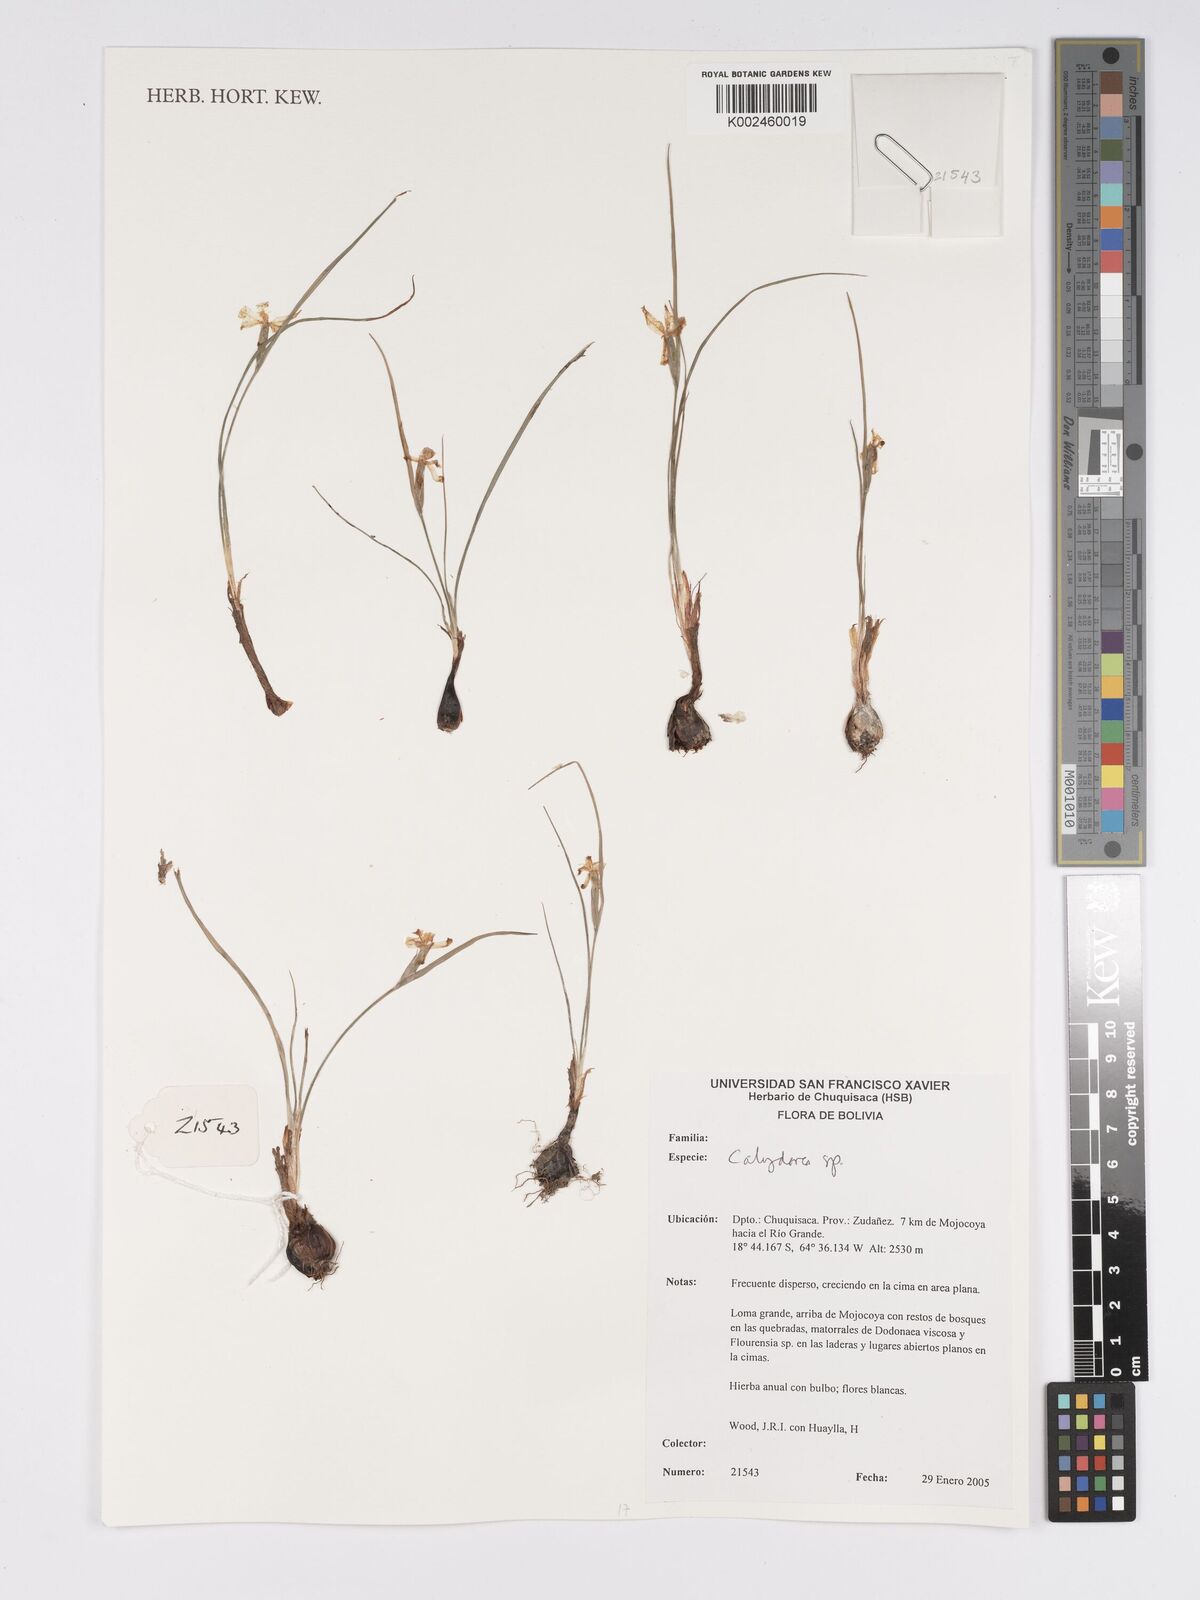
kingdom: Plantae
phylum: Tracheophyta
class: Liliopsida
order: Asparagales
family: Iridaceae
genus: Calydorea
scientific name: Calydorea
